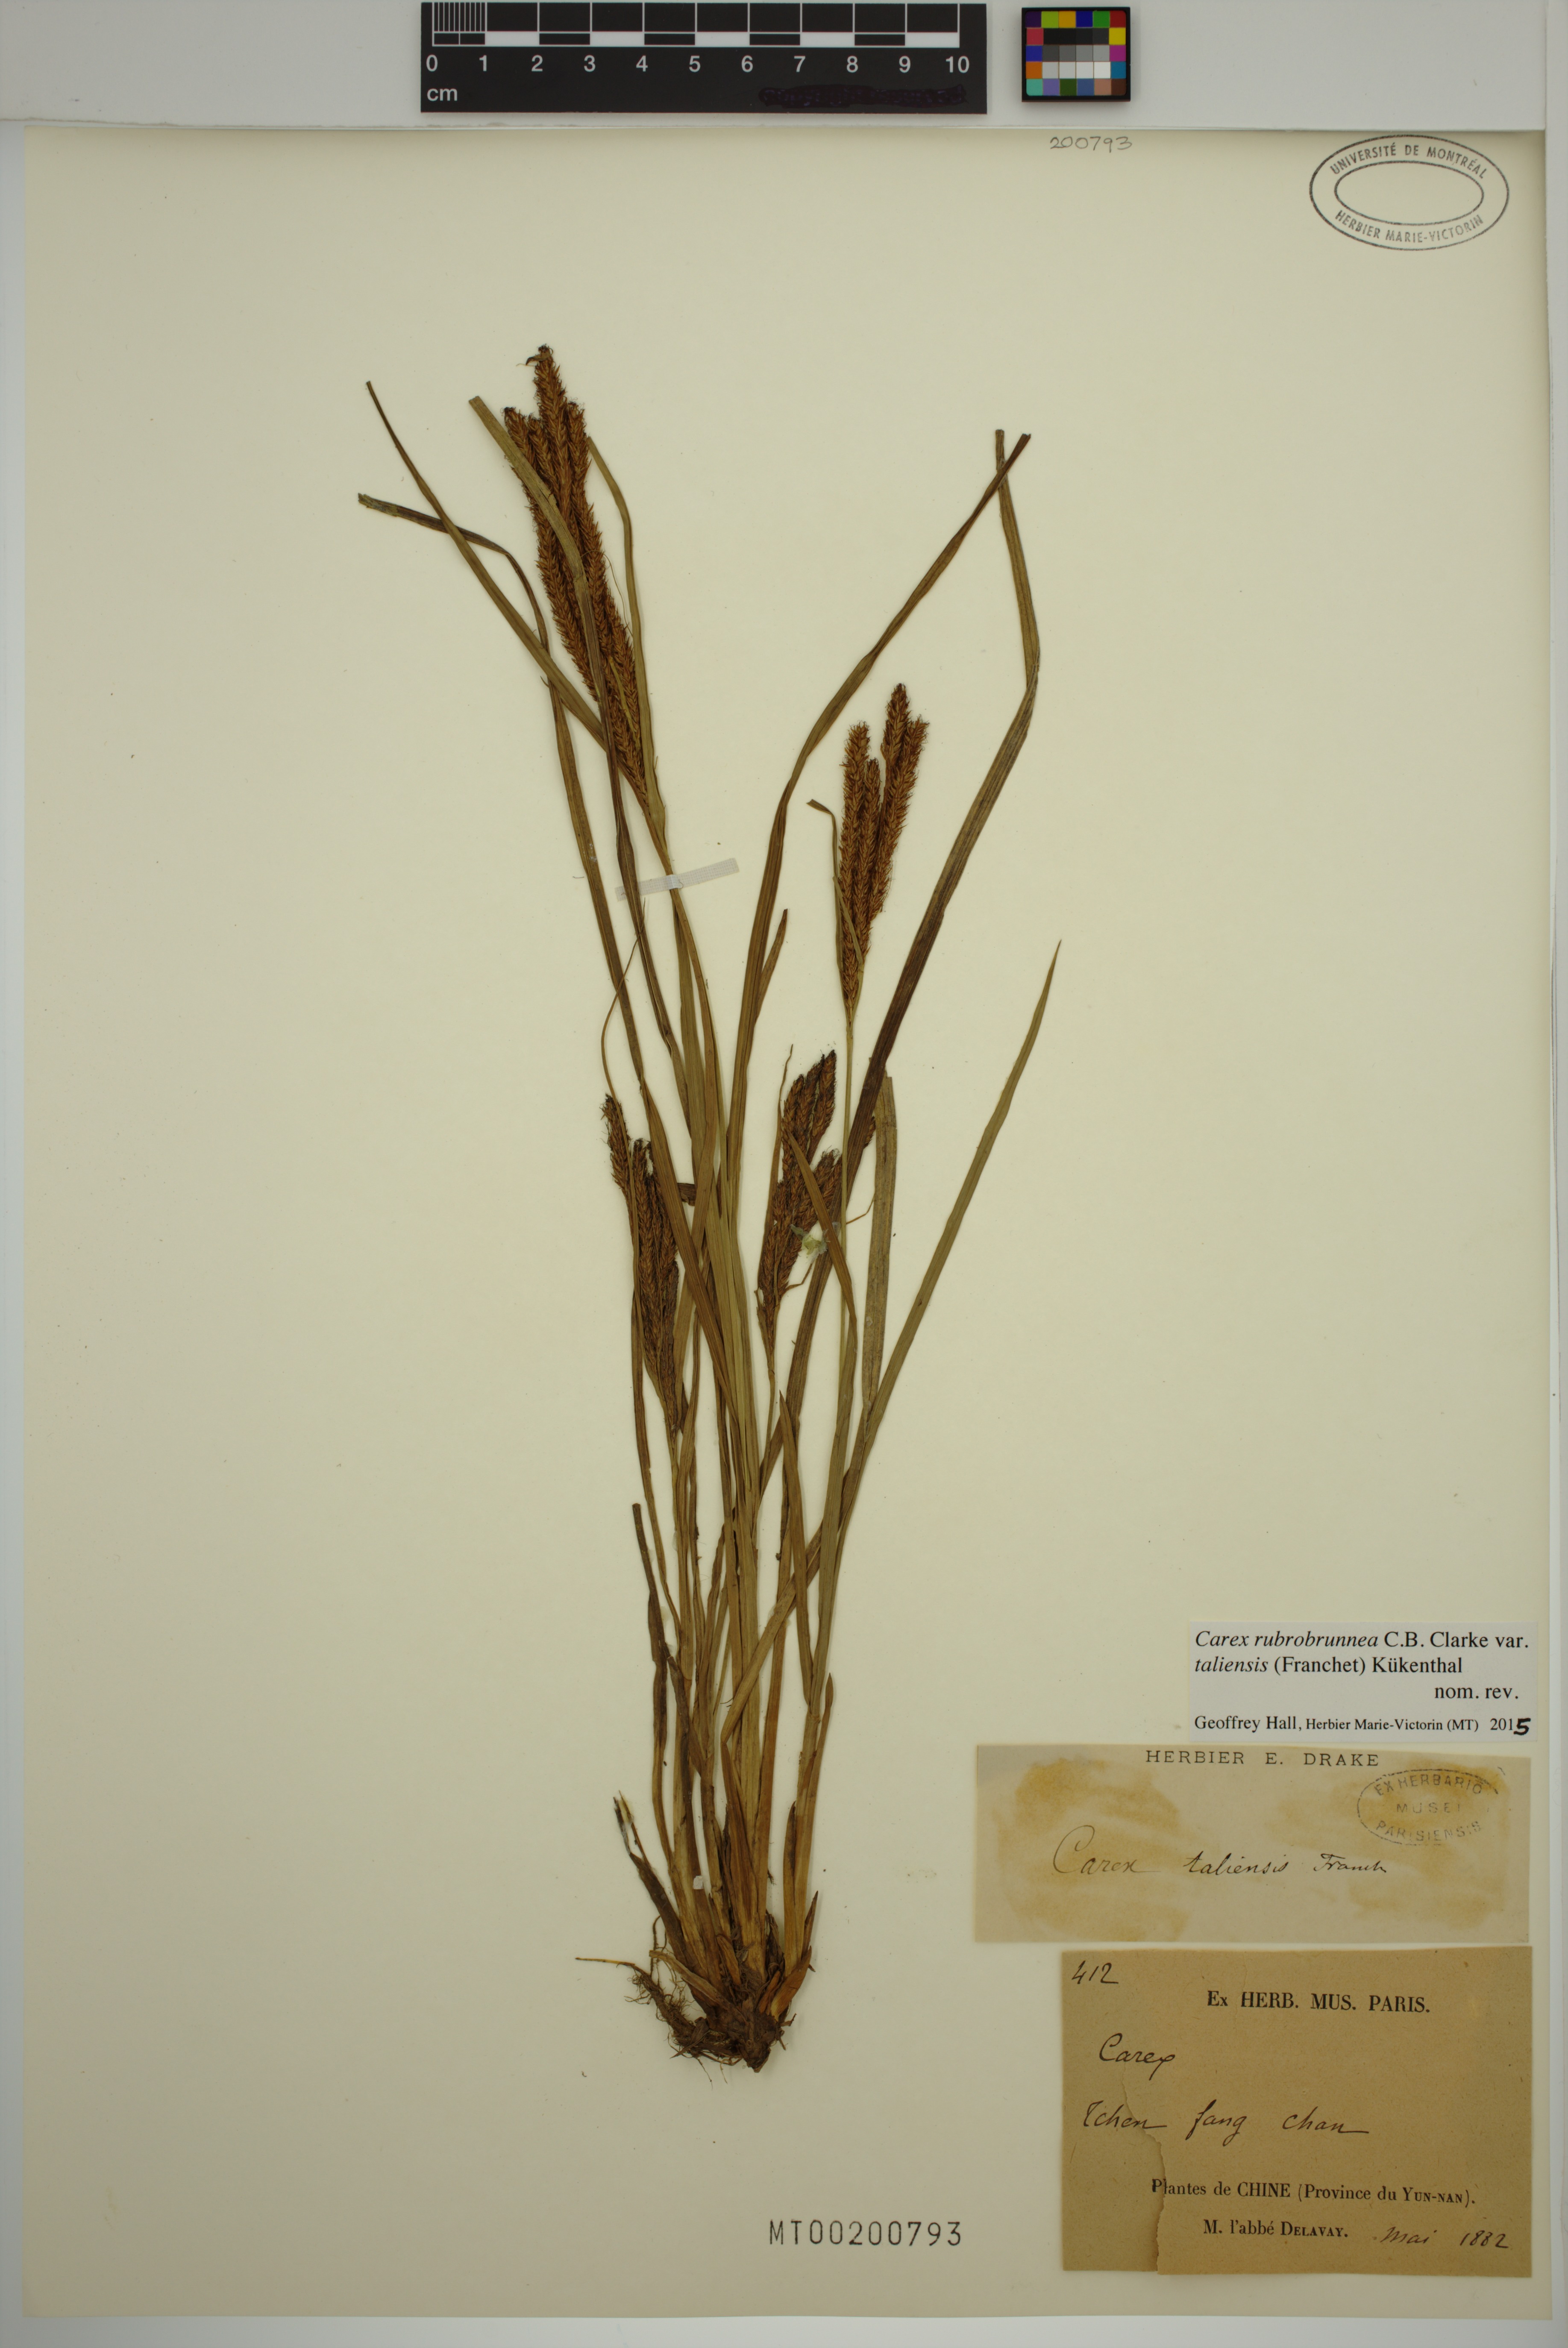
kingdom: Plantae
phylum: Tracheophyta
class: Liliopsida
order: Poales
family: Cyperaceae
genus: Carex
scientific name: Carex rubrobrunnea
